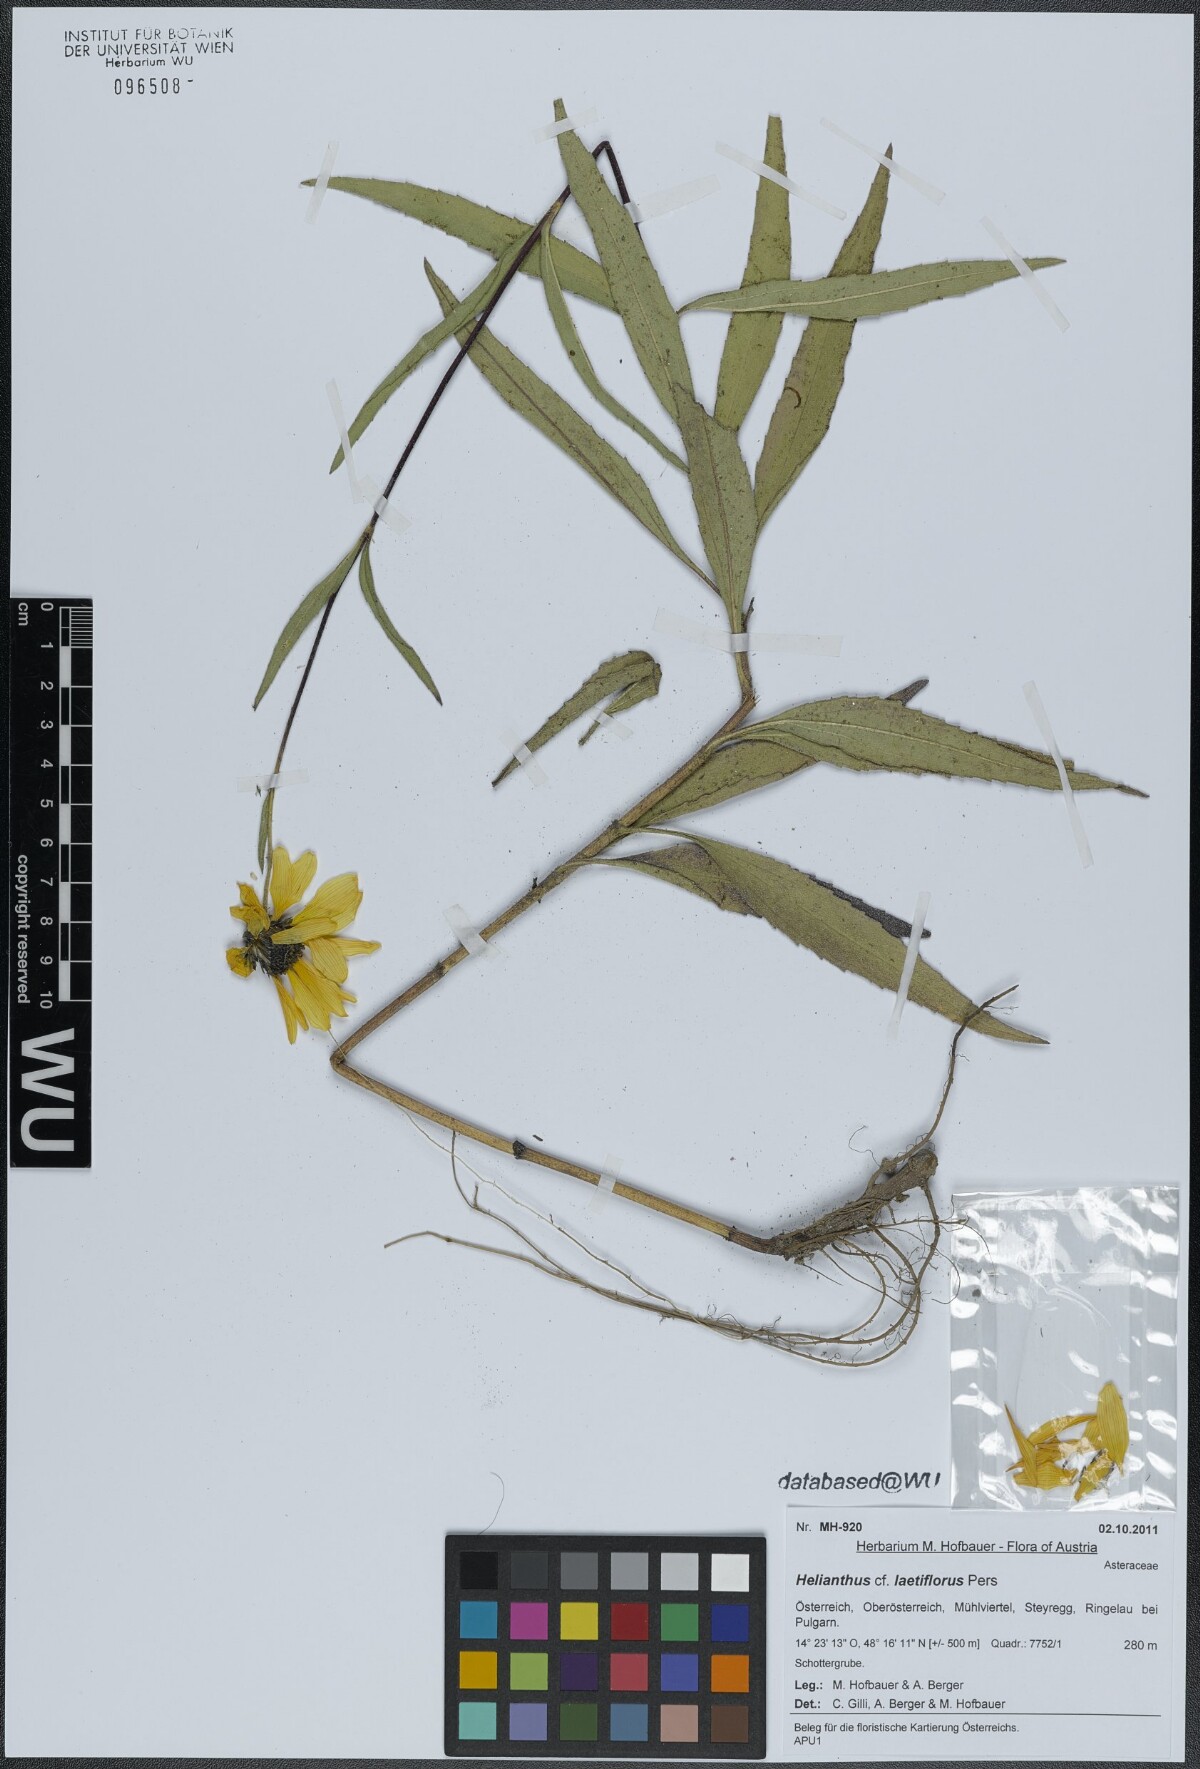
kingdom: Plantae
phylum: Tracheophyta
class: Magnoliopsida
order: Asterales
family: Asteraceae
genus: Helianthus
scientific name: Helianthus laetiflorus
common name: Perennial sunflower
